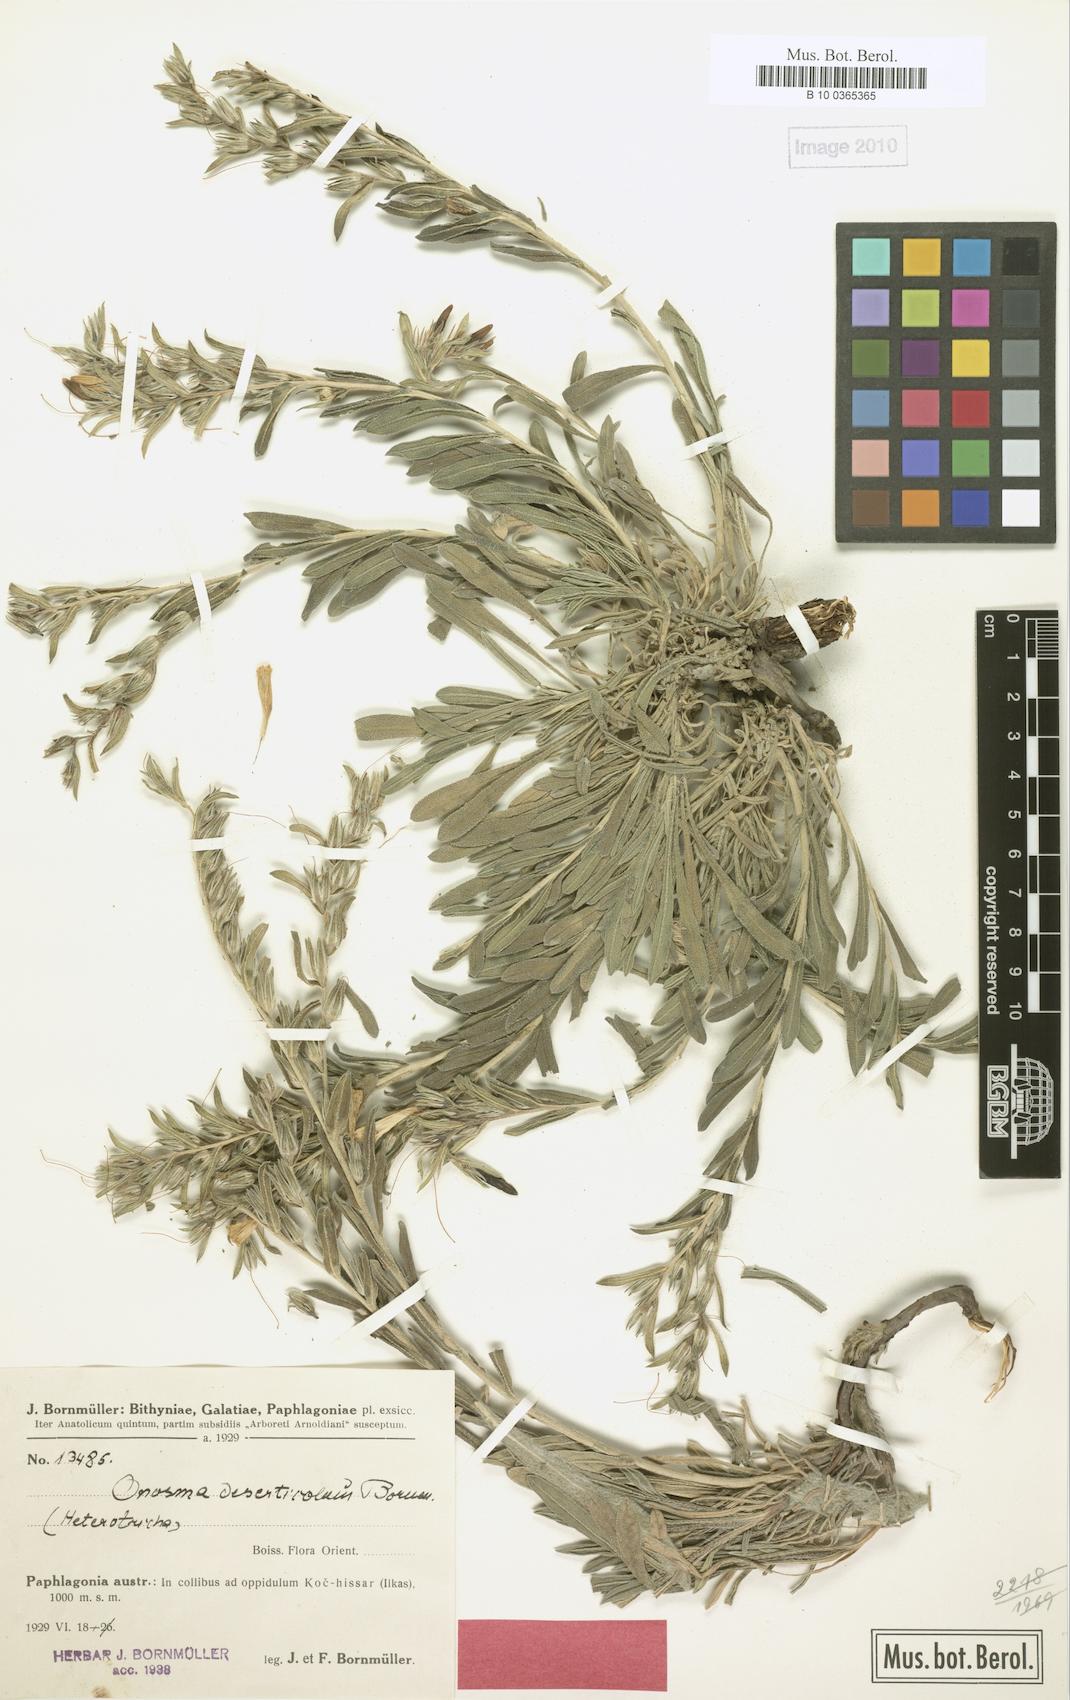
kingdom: Plantae
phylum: Tracheophyta
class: Magnoliopsida
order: Boraginales
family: Boraginaceae
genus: Onosma
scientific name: Onosma deserticola
